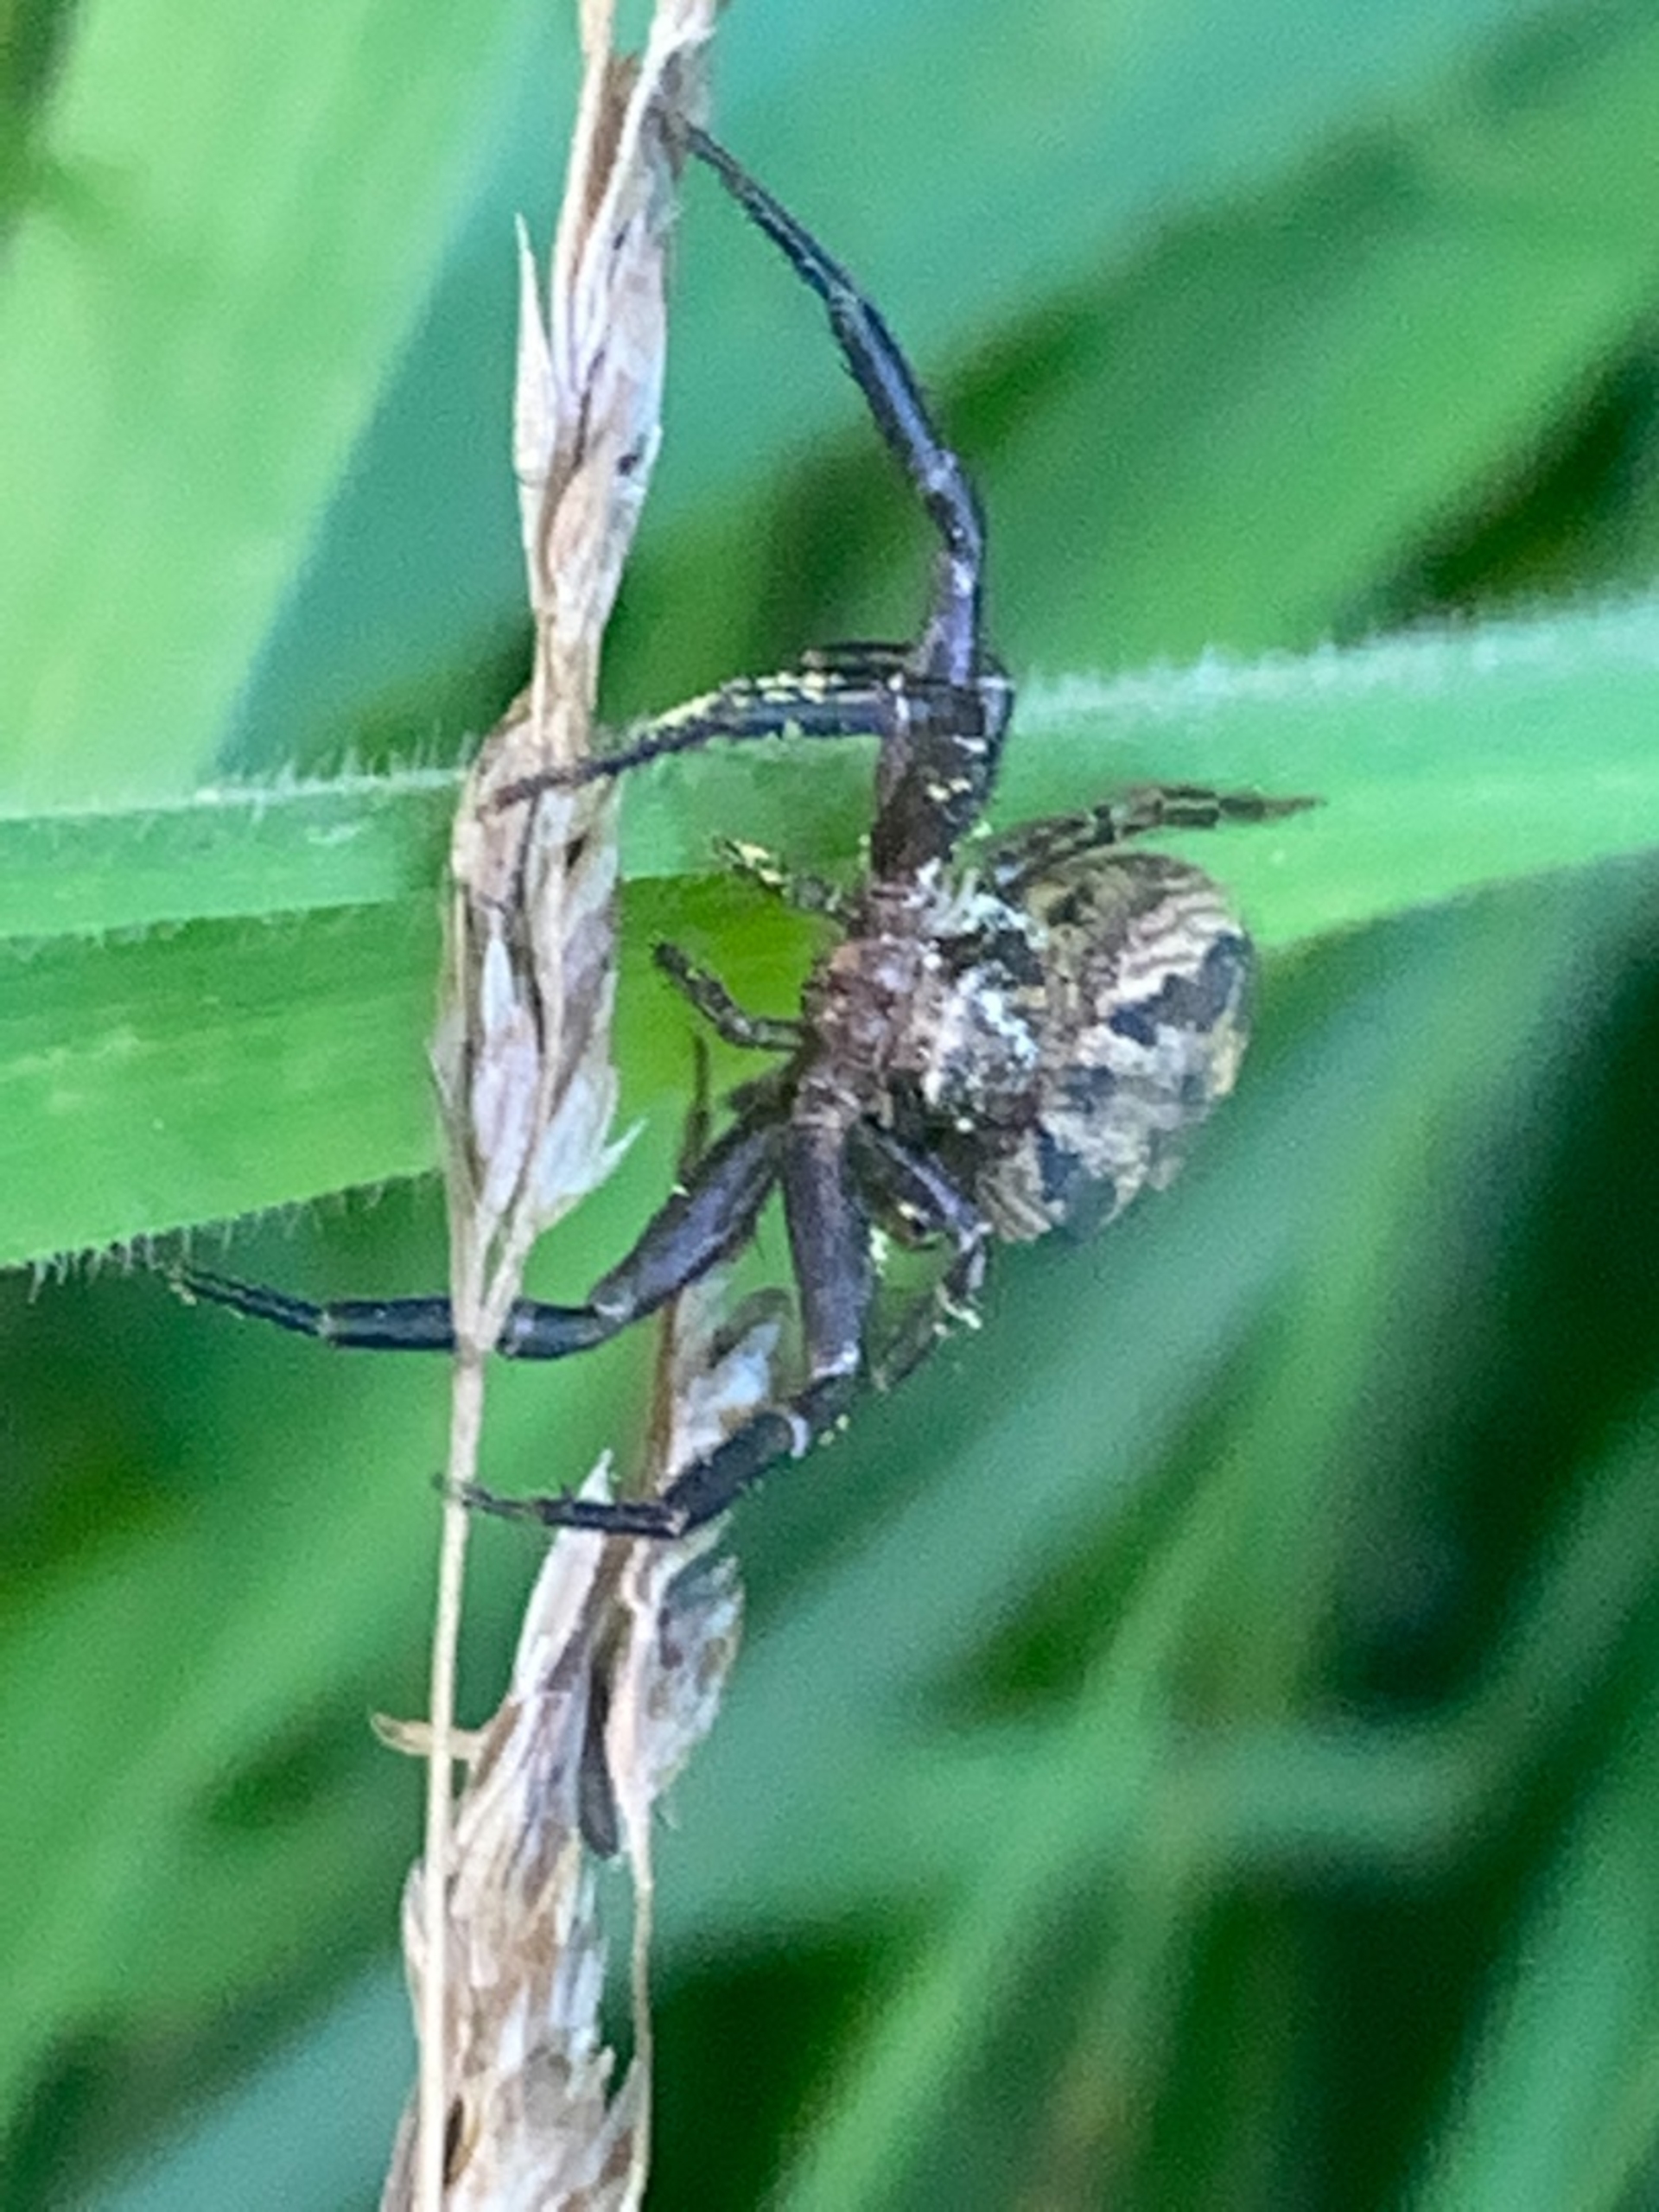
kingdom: Animalia
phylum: Arthropoda
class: Arachnida
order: Araneae
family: Thomisidae
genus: Xysticus
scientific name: Xysticus
